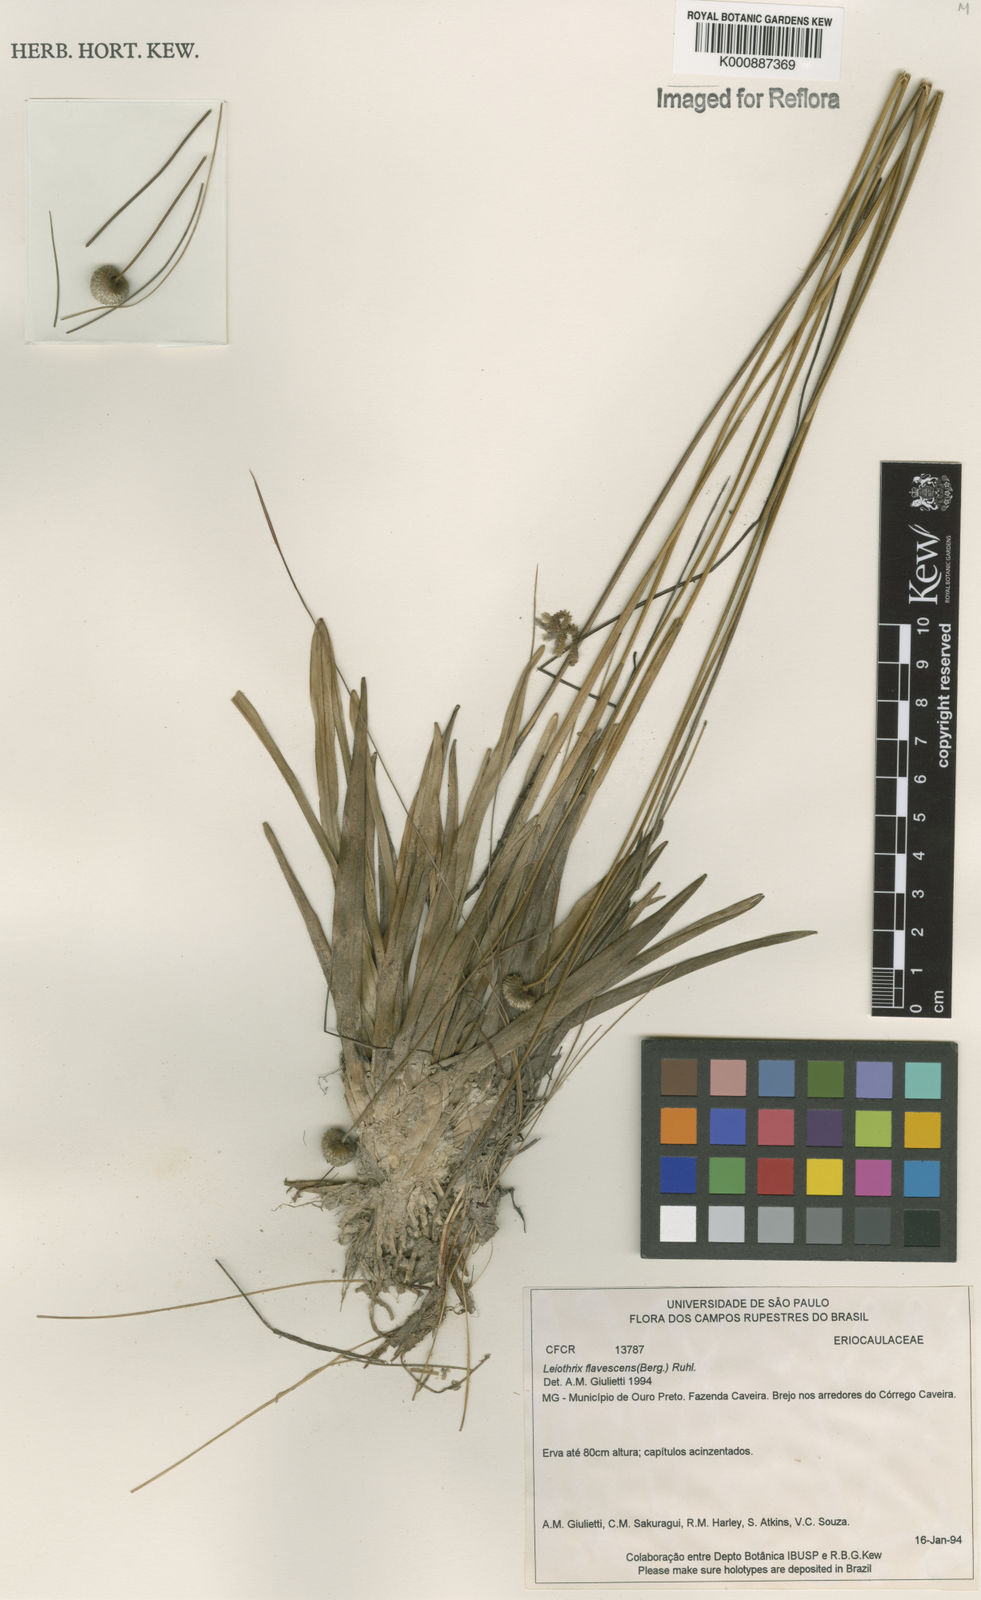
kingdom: Plantae
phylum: Tracheophyta
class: Liliopsida
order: Poales
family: Eriocaulaceae
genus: Leiothrix
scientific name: Leiothrix flavescens
